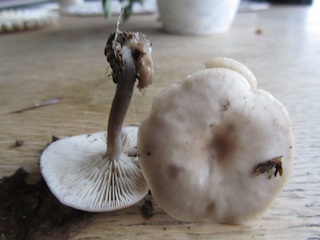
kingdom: Fungi
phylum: Basidiomycota
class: Agaricomycetes
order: Agaricales
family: Tricholomataceae
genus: Clitocybe
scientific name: Clitocybe metachroa
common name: grå tragthat
